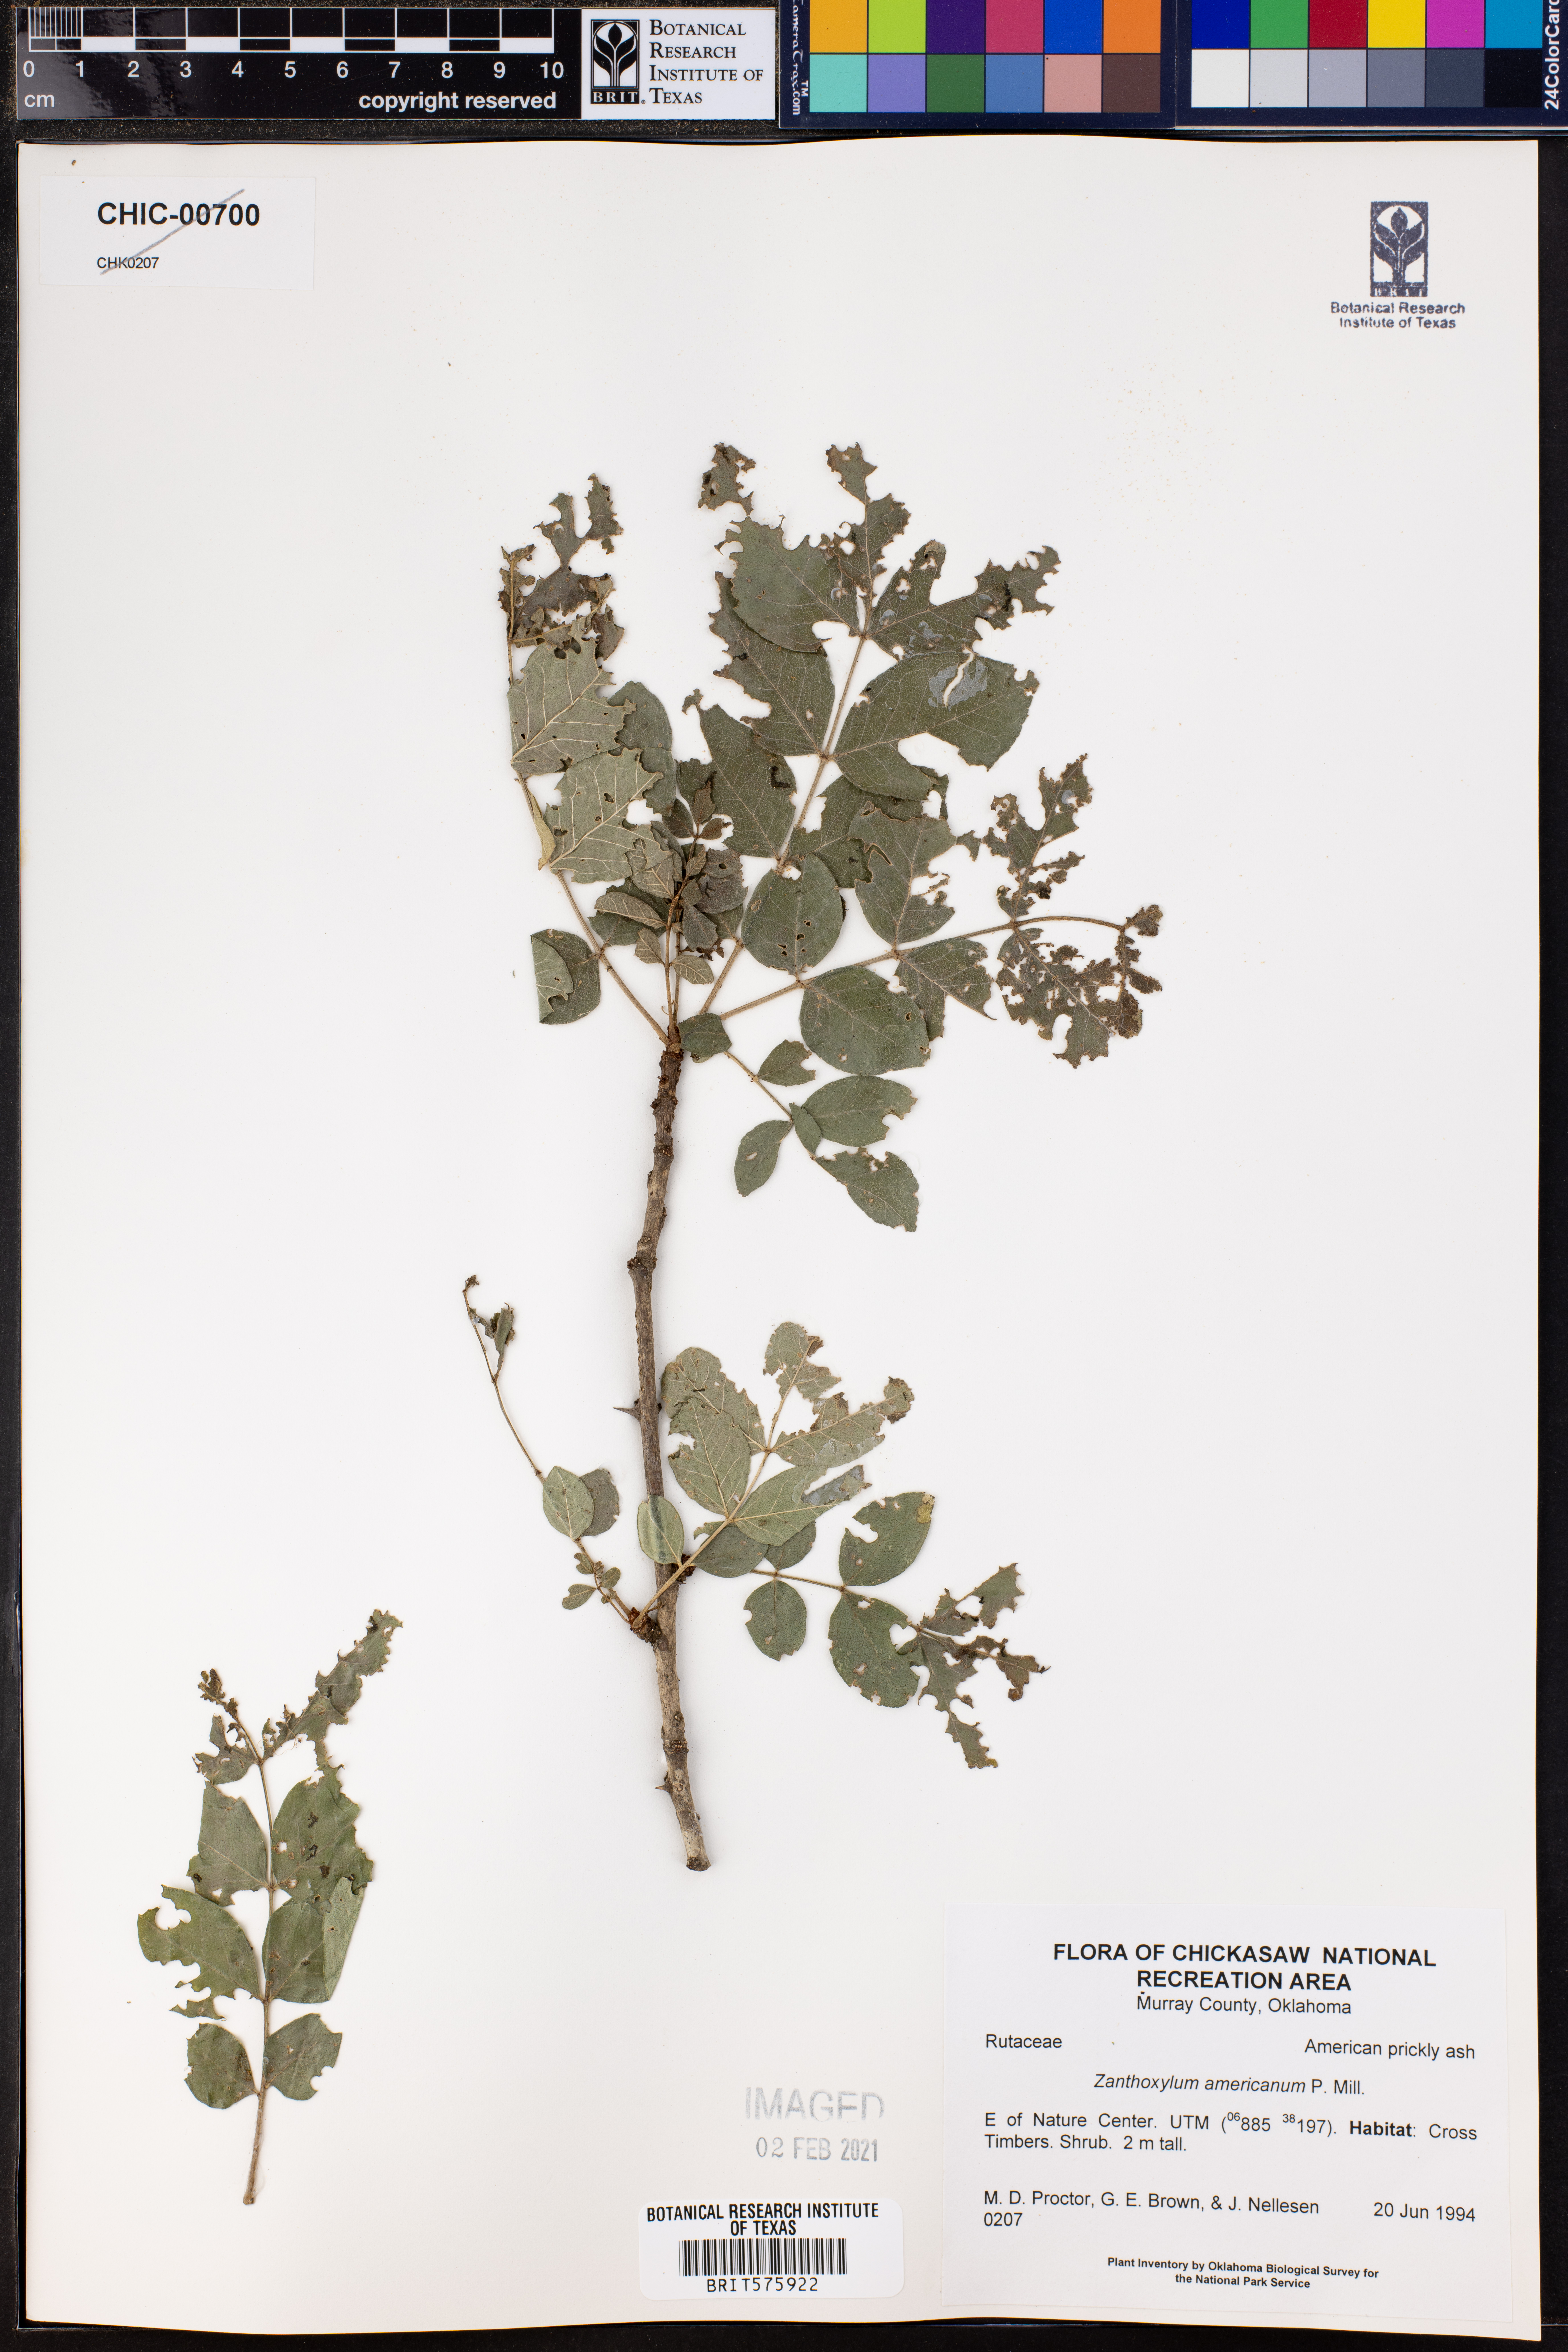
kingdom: Plantae
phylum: Tracheophyta
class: Magnoliopsida
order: Sapindales
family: Rutaceae
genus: Zanthoxylum
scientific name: Zanthoxylum americanum
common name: Northern prickly-ash
